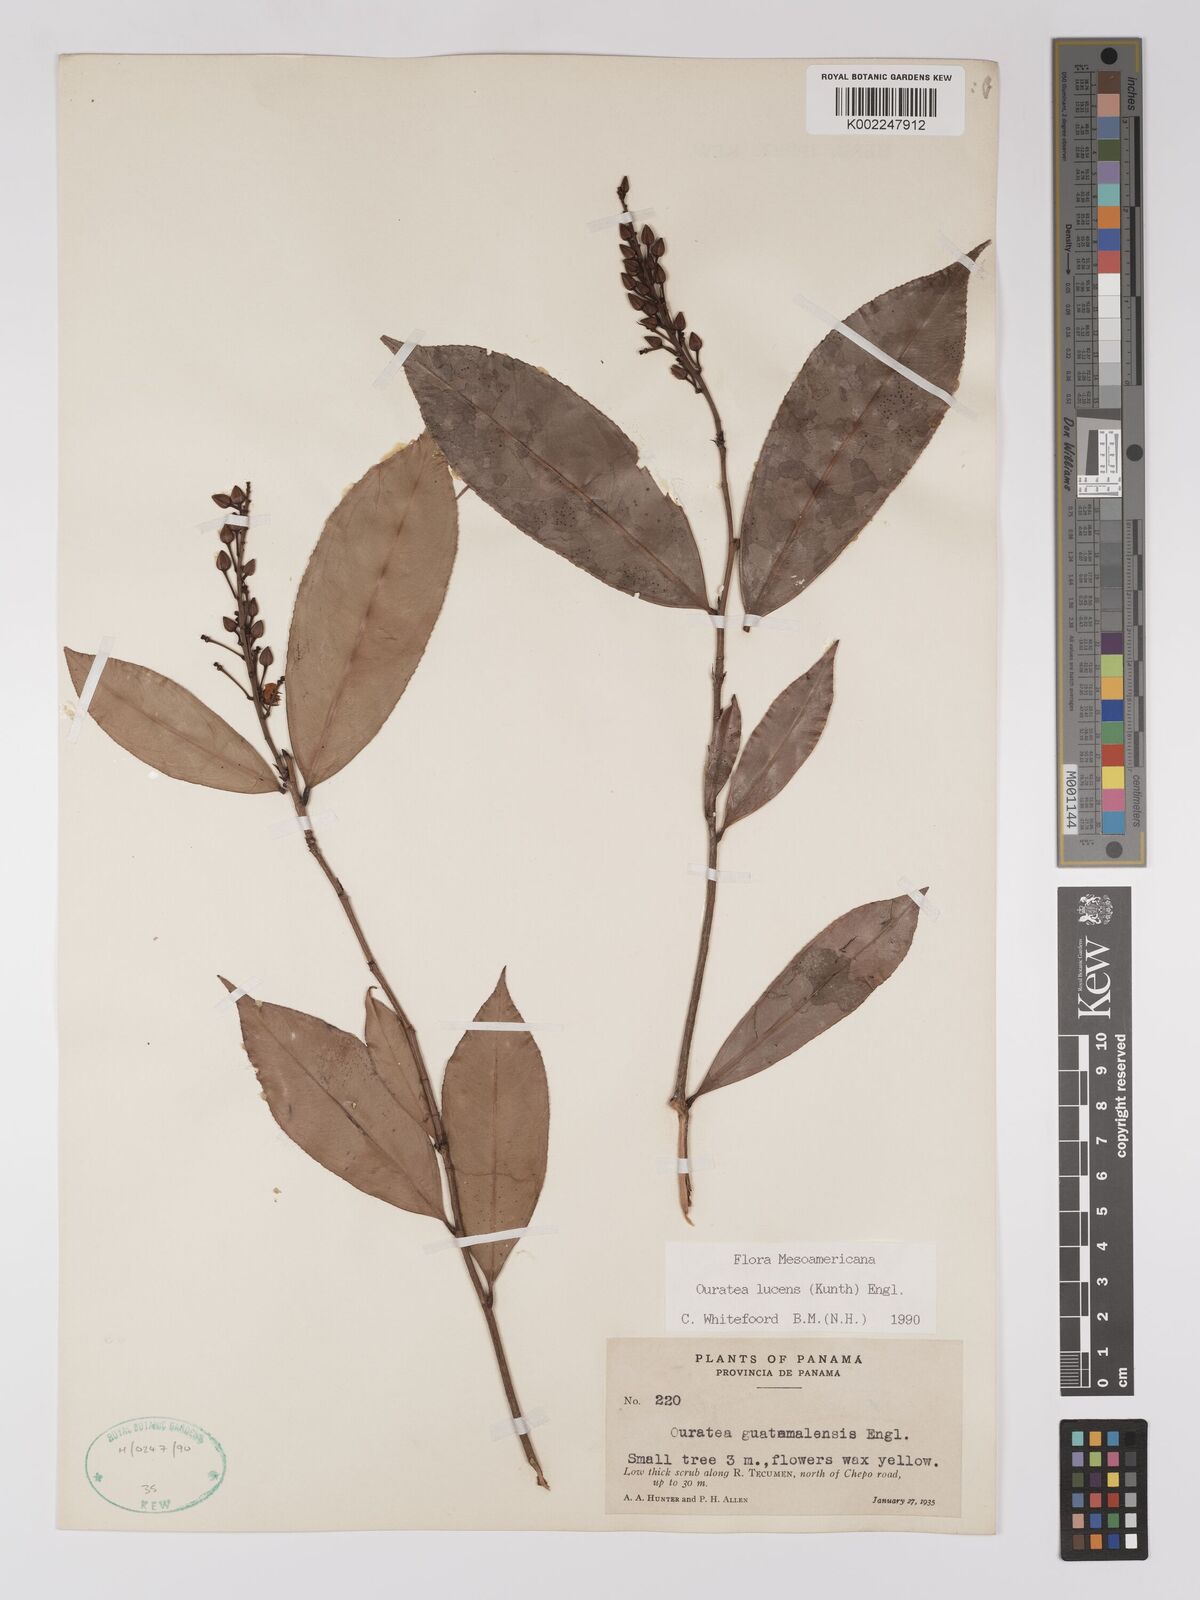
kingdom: Plantae
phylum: Tracheophyta
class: Magnoliopsida
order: Malpighiales
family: Ochnaceae
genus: Ouratea
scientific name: Ouratea lucens
